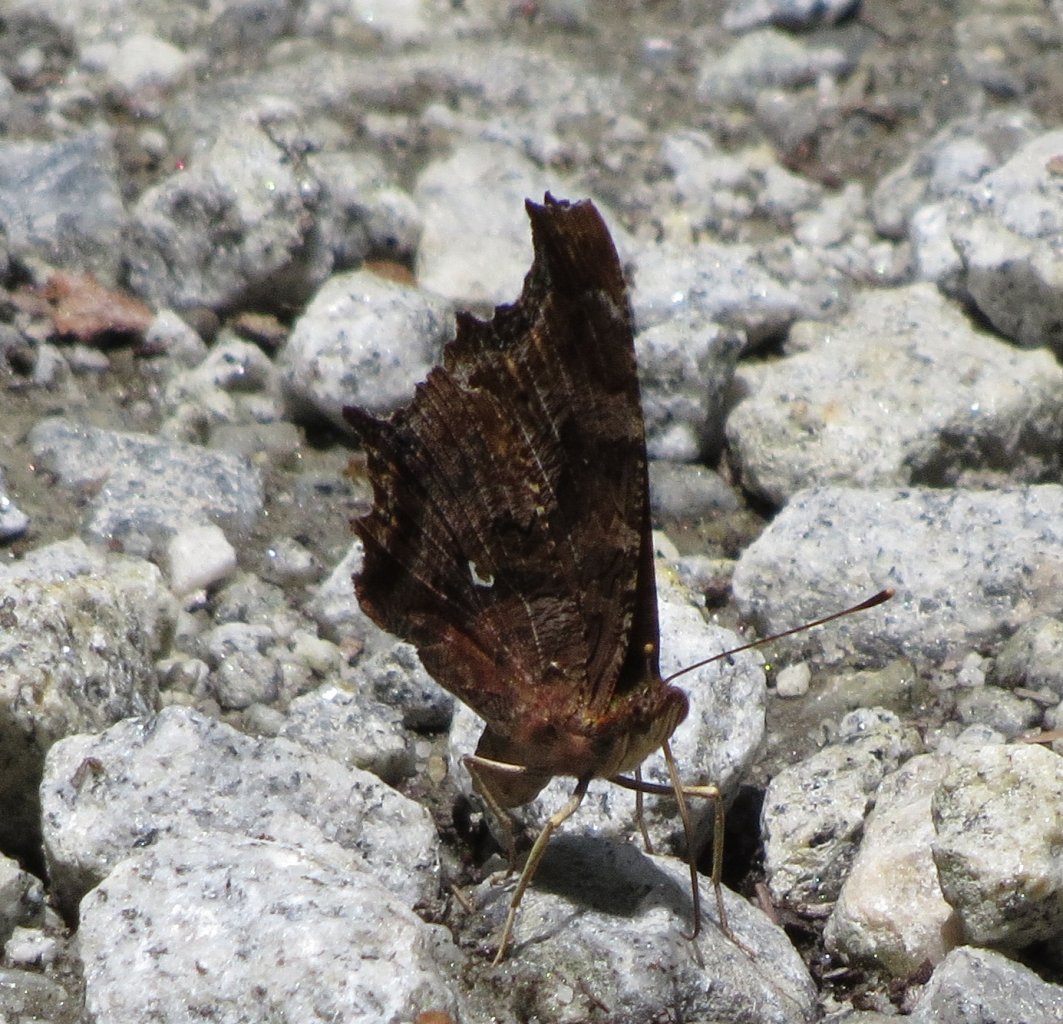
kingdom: Animalia
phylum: Arthropoda
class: Insecta
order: Lepidoptera
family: Nymphalidae
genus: Polygonia
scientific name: Polygonia comma
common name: Eastern Comma
